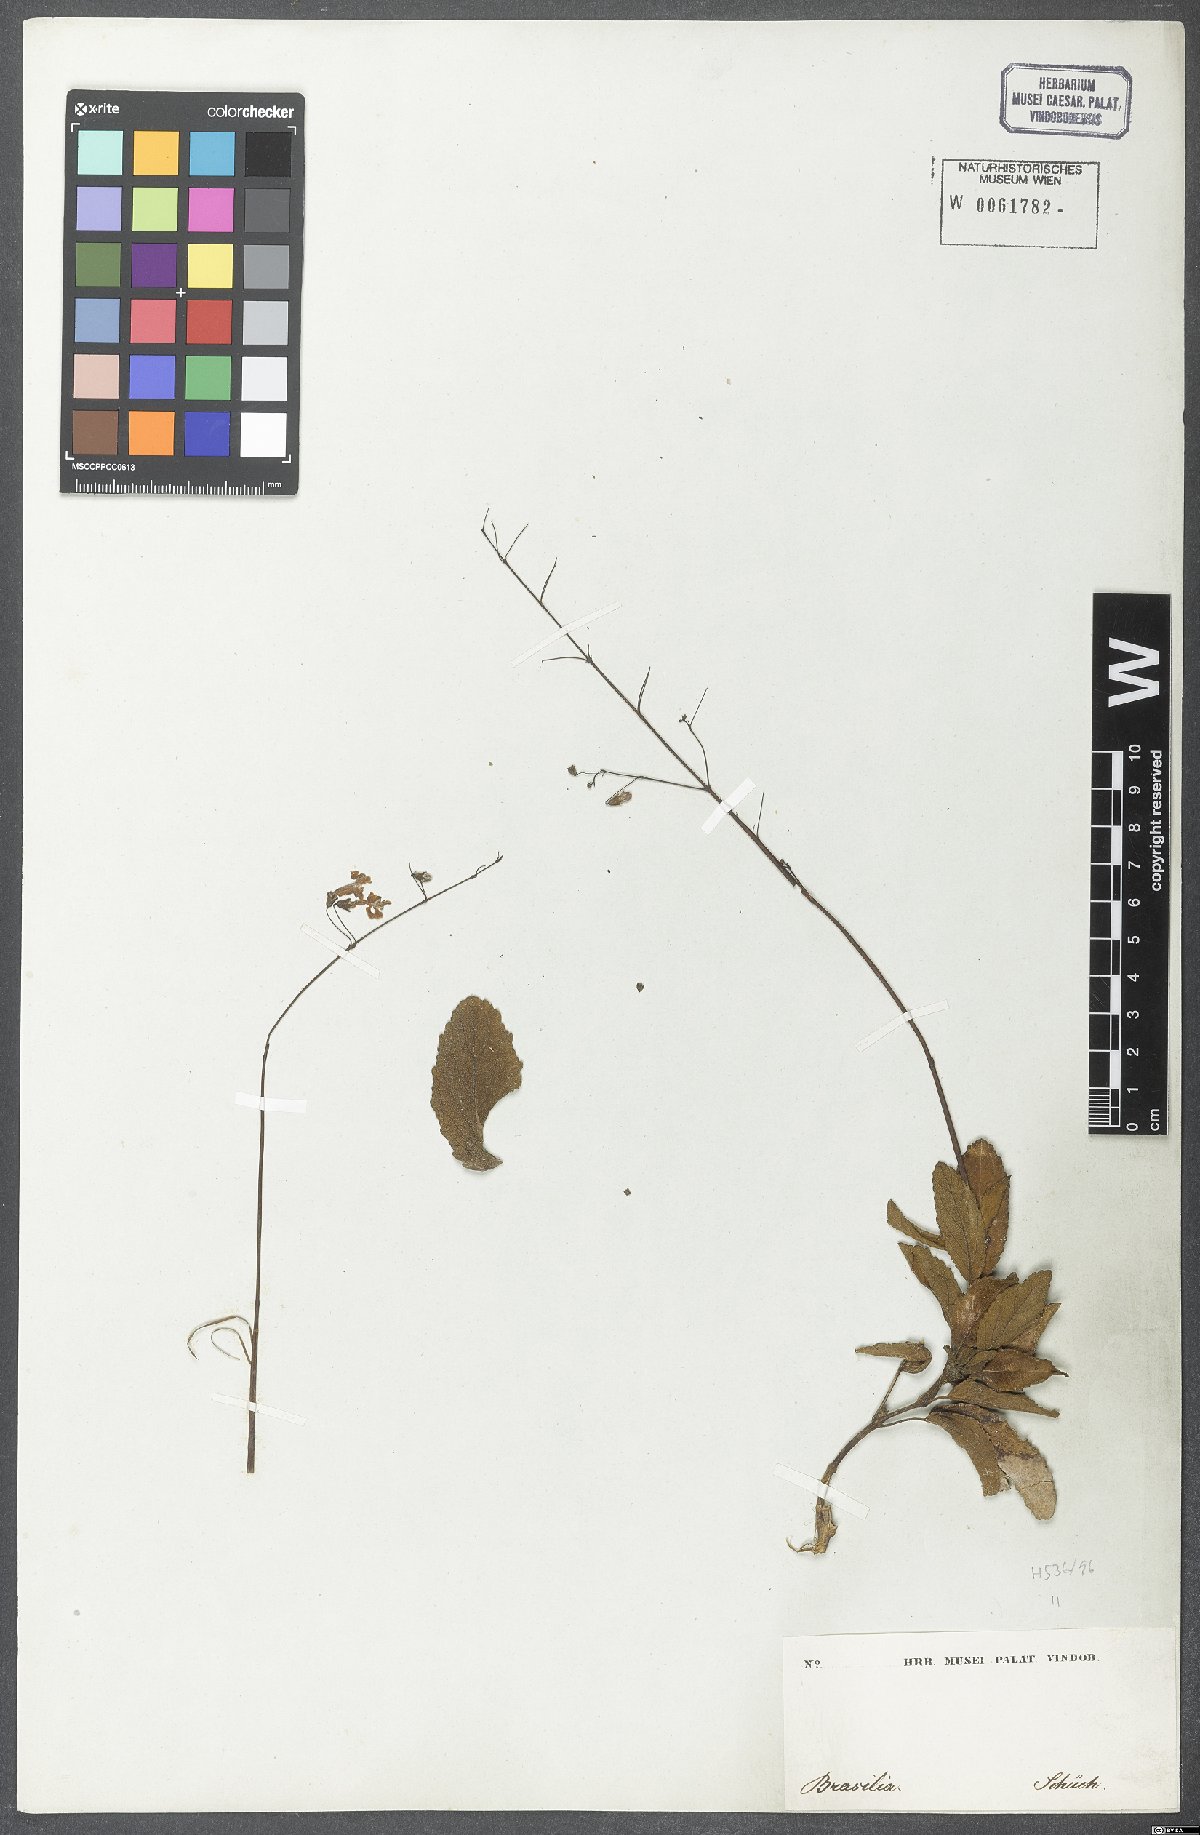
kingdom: Plantae
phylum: Tracheophyta
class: Magnoliopsida
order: Lamiales
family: Lamiaceae
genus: Hypenia
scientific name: Hypenia
